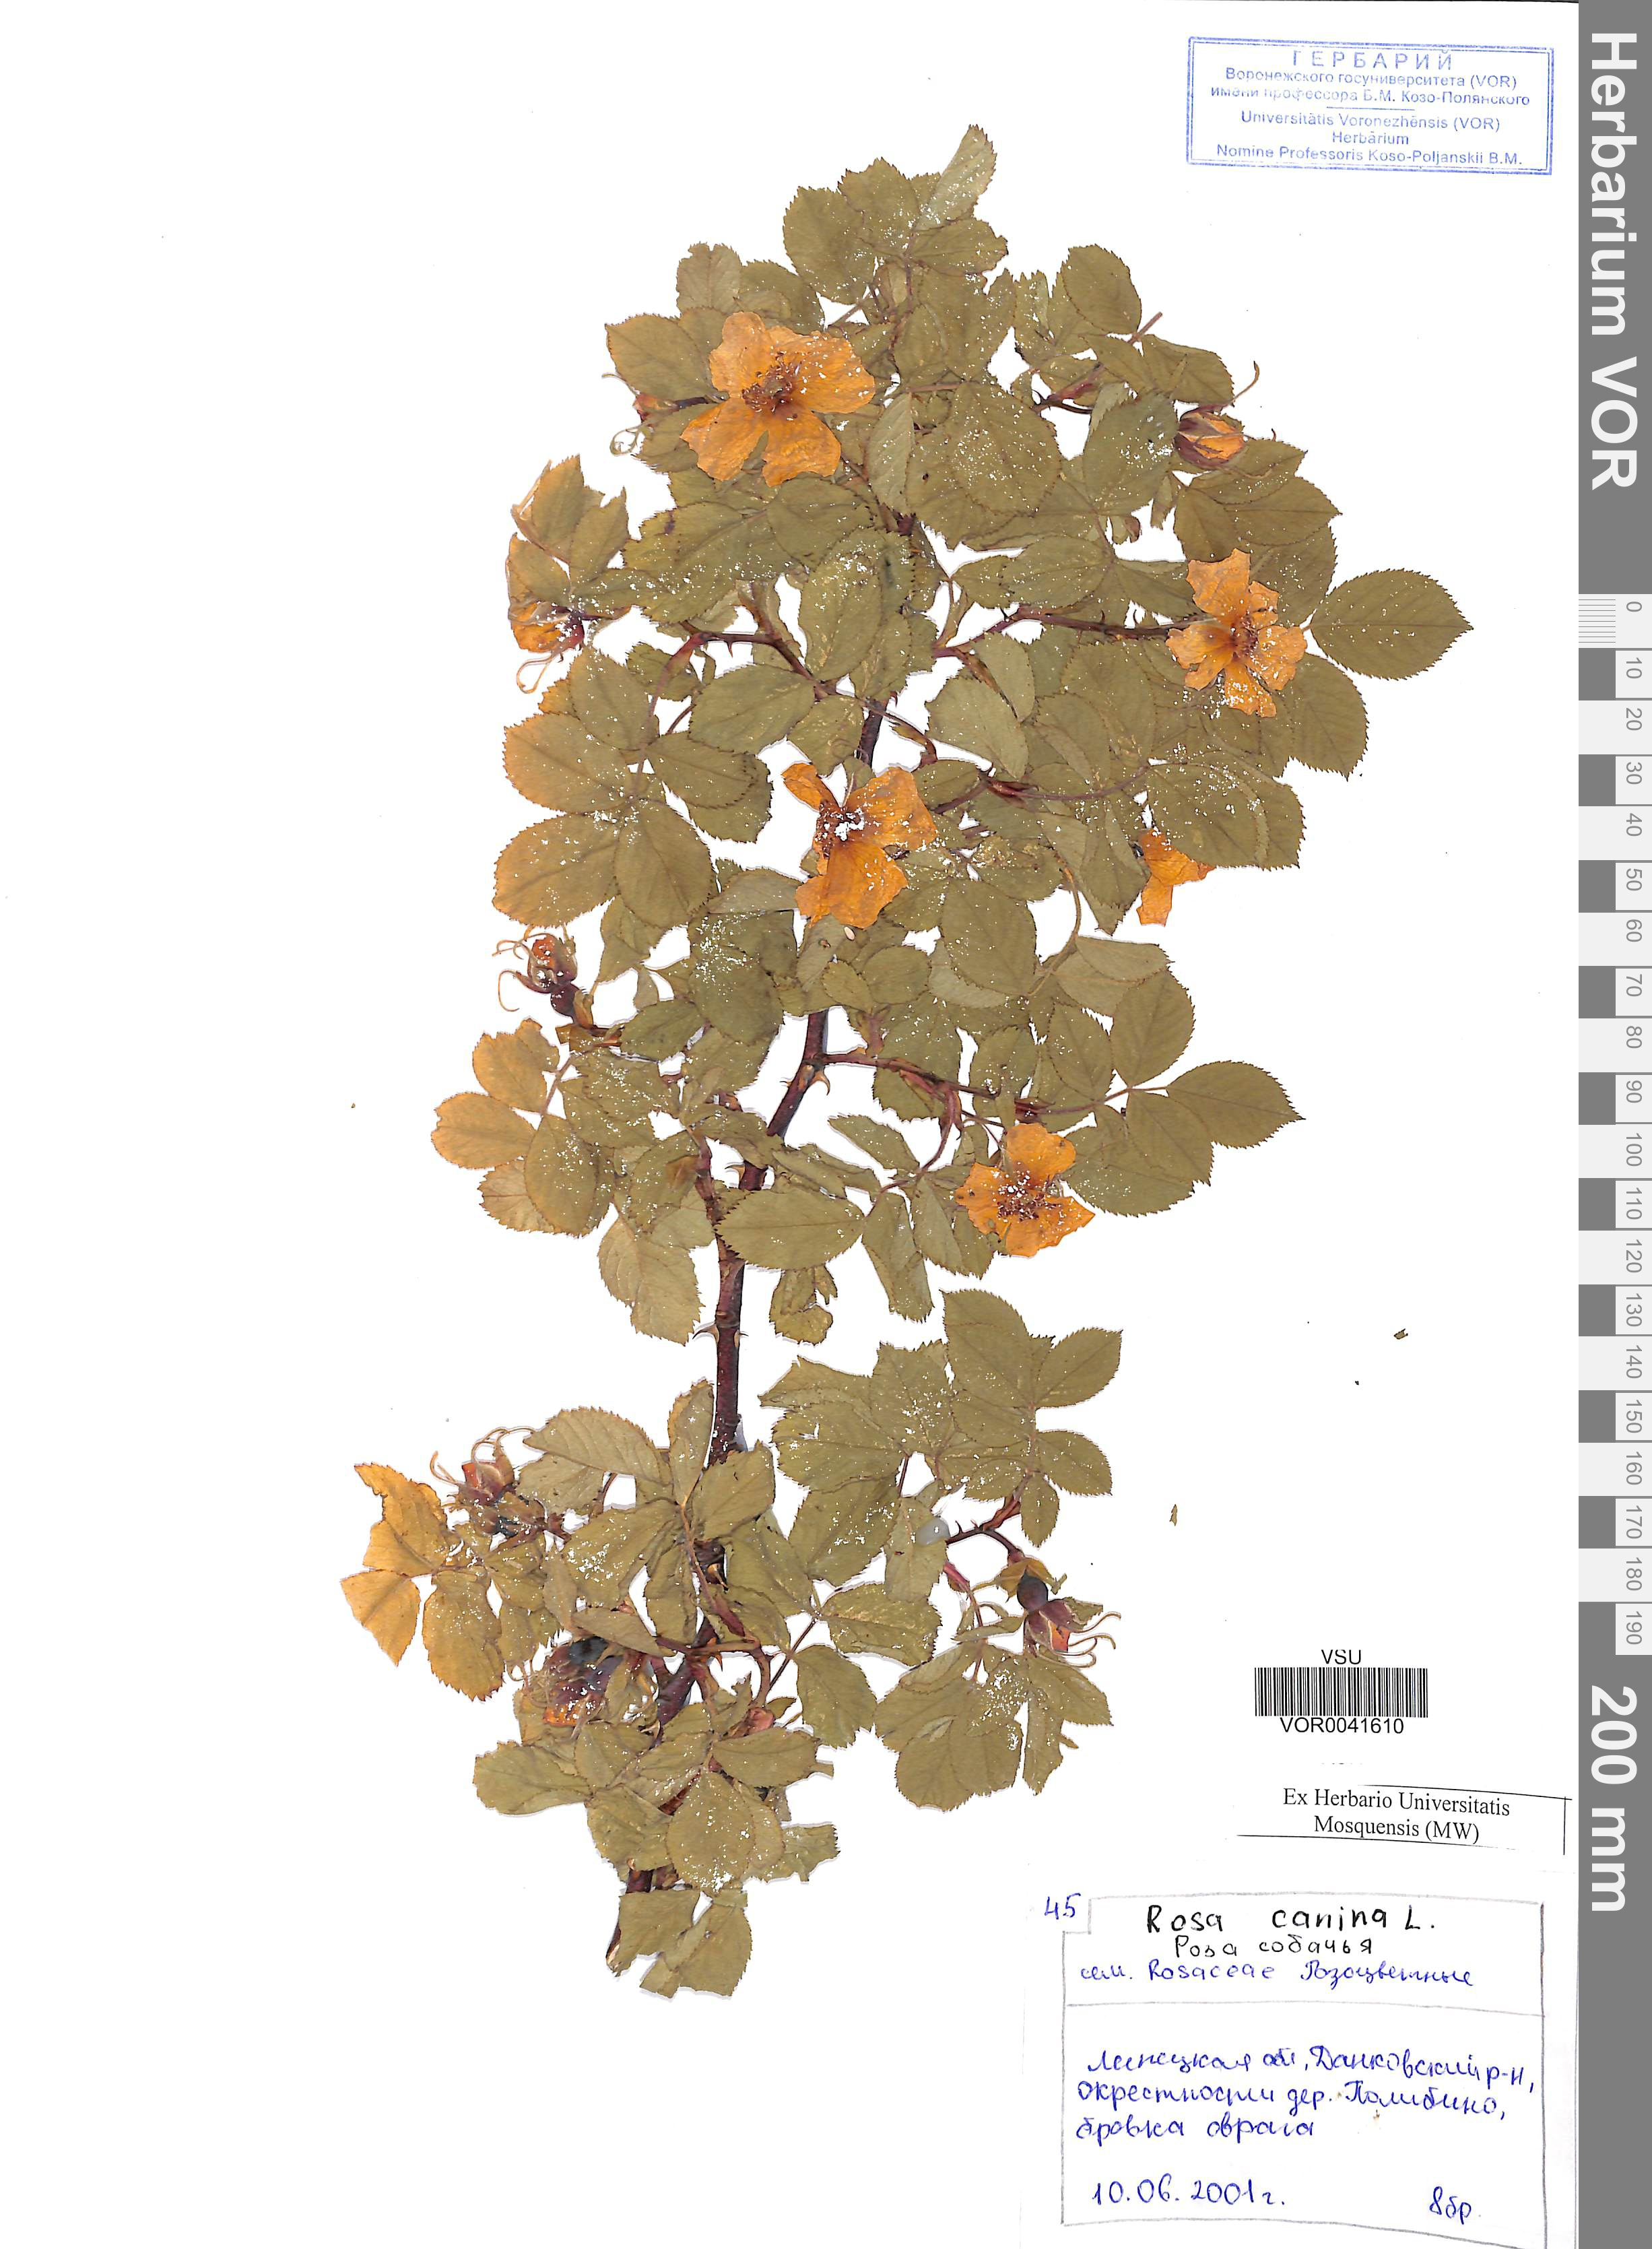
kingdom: Plantae
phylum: Tracheophyta
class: Magnoliopsida
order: Rosales
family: Rosaceae
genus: Rosa
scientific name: Rosa canina
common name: Dog rose
